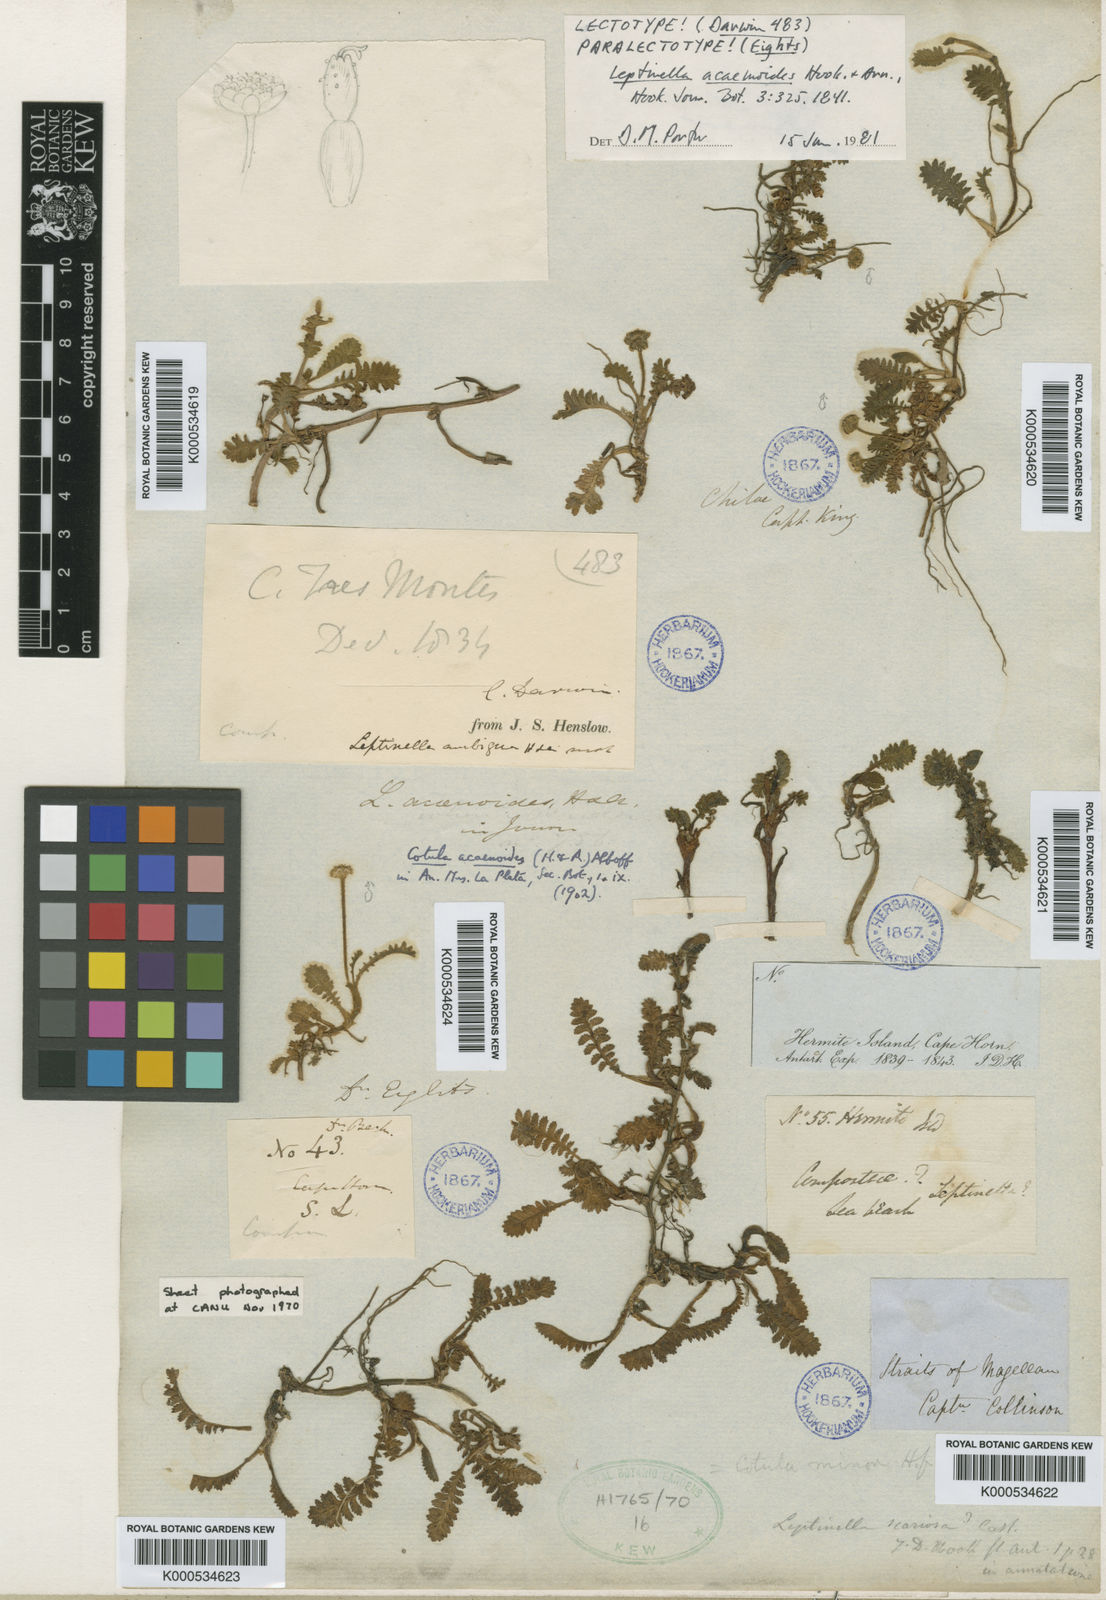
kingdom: Plantae
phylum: Tracheophyta
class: Magnoliopsida
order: Asterales
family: Asteraceae
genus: Leptinella
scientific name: Leptinella scariosa
